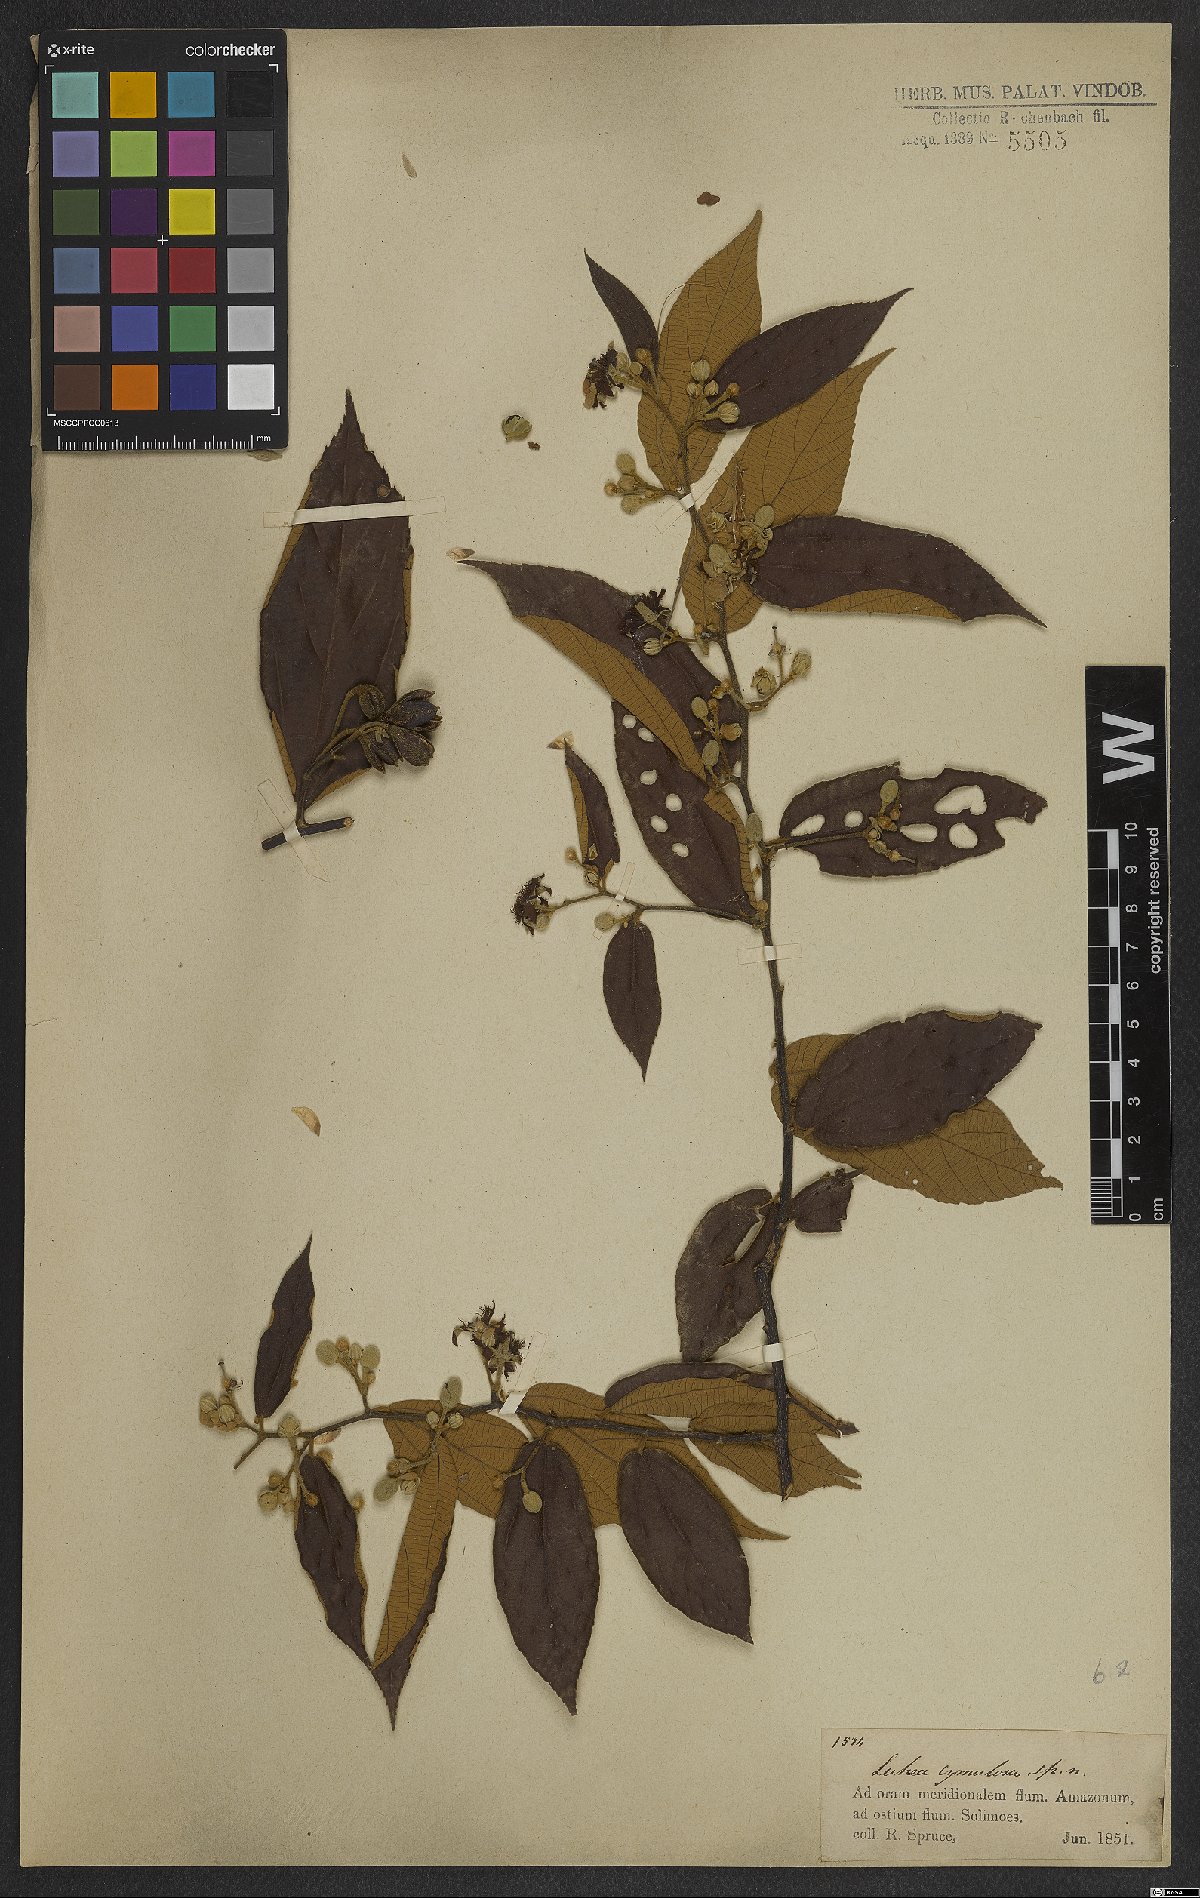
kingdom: Plantae
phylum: Tracheophyta
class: Magnoliopsida
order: Malvales
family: Malvaceae
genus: Luehea
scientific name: Luehea cymulosa
